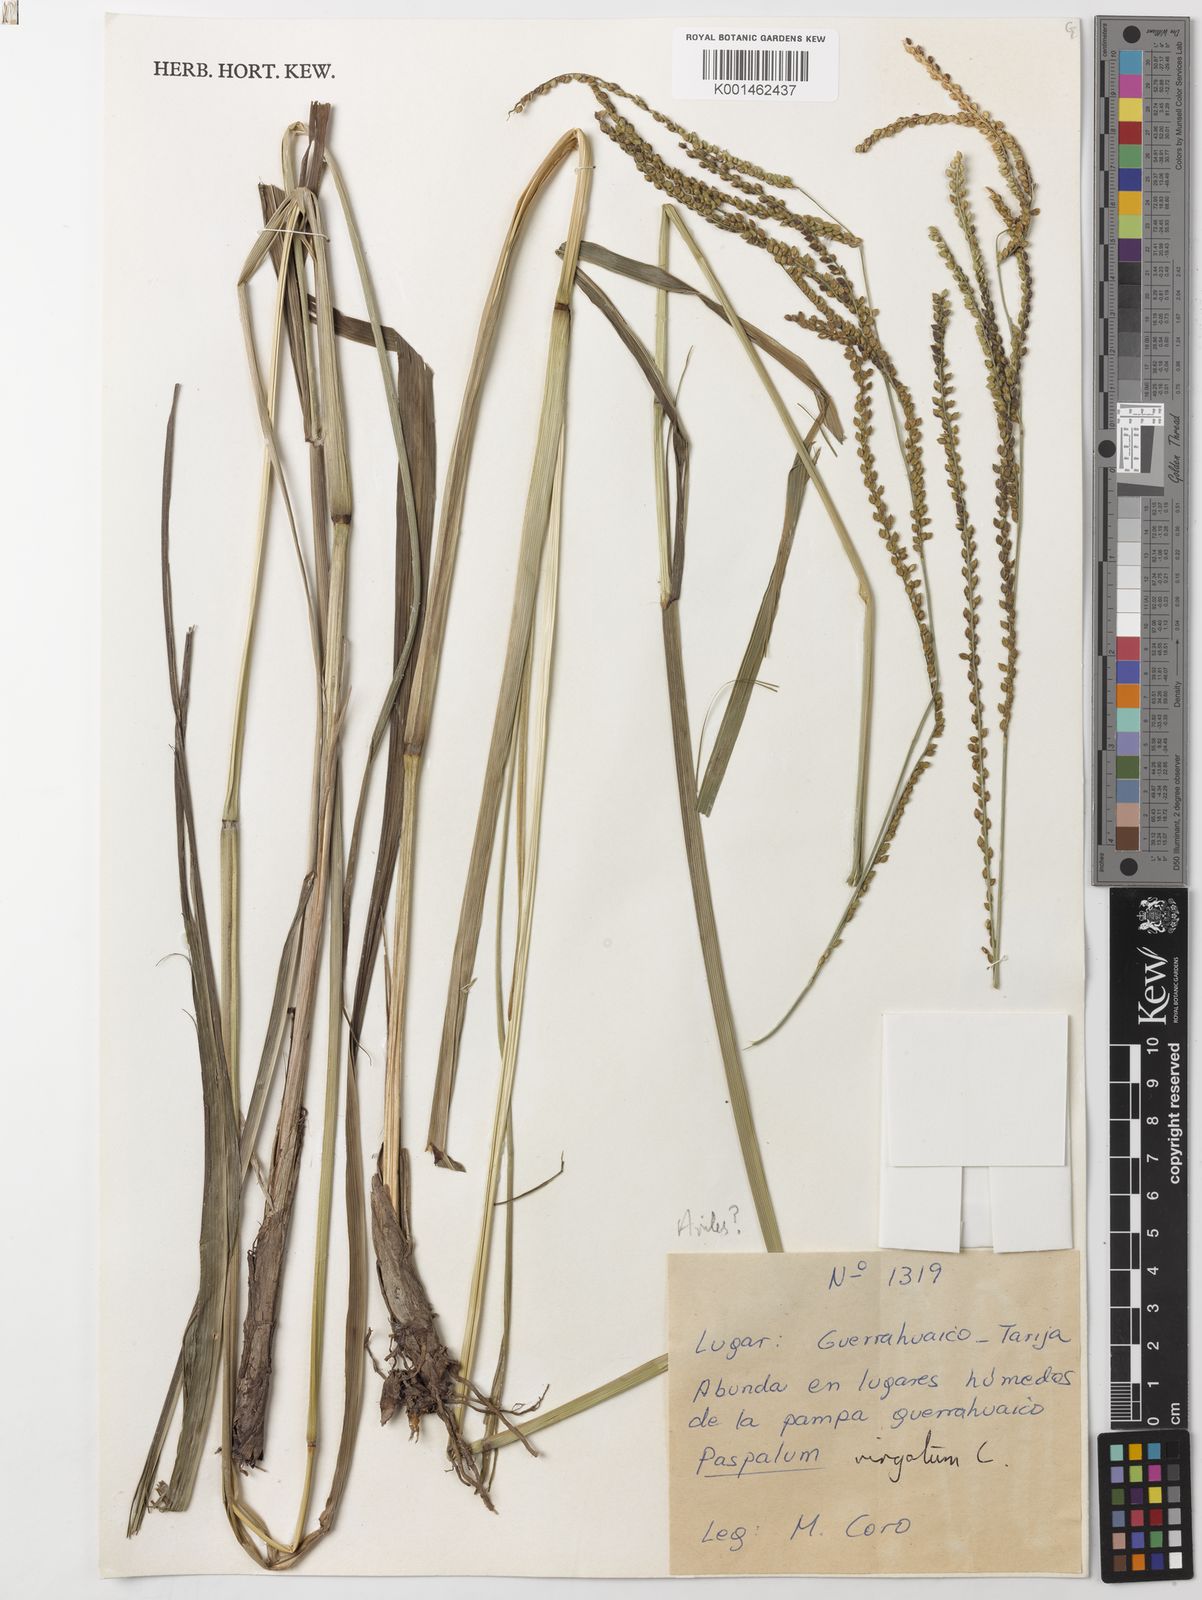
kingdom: Plantae
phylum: Tracheophyta
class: Liliopsida
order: Poales
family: Poaceae
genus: Paspalum
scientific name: Paspalum conspersum
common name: Scattered paspalum
